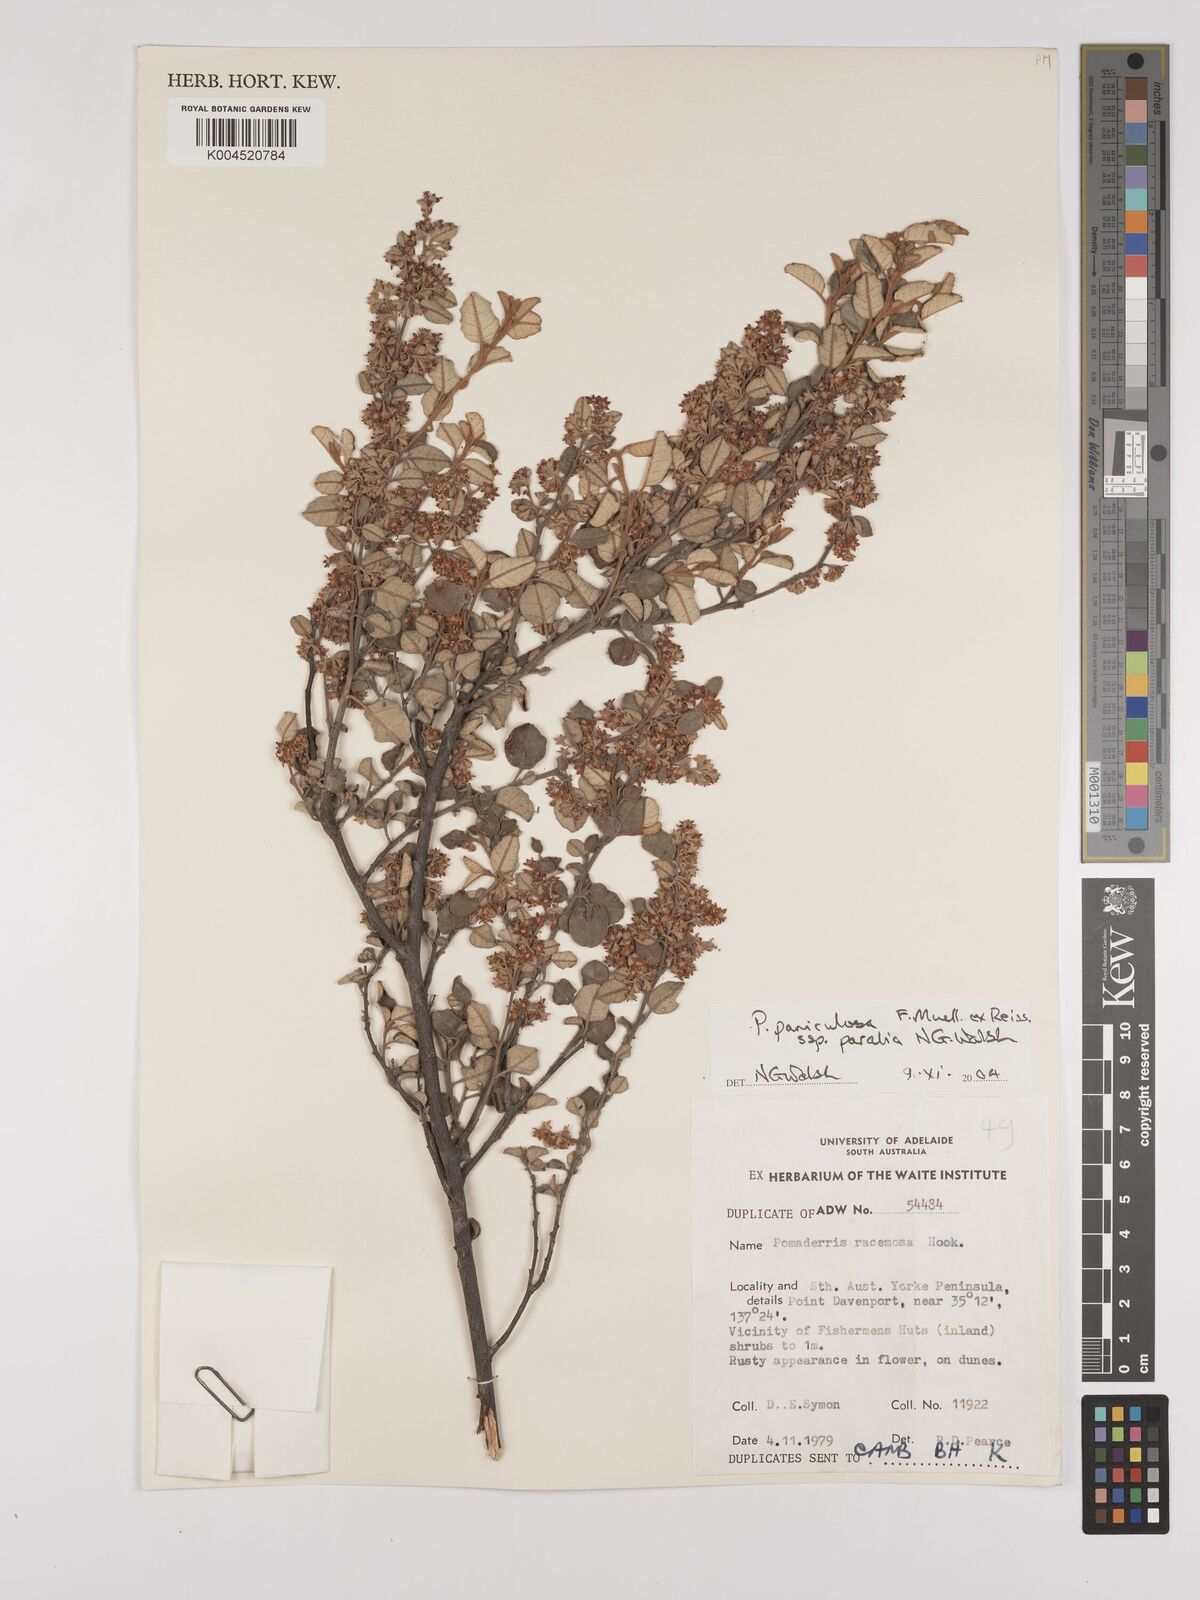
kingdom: Plantae
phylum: Tracheophyta
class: Magnoliopsida
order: Rosales
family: Rhamnaceae
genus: Pomaderris
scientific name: Pomaderris paniculosa
